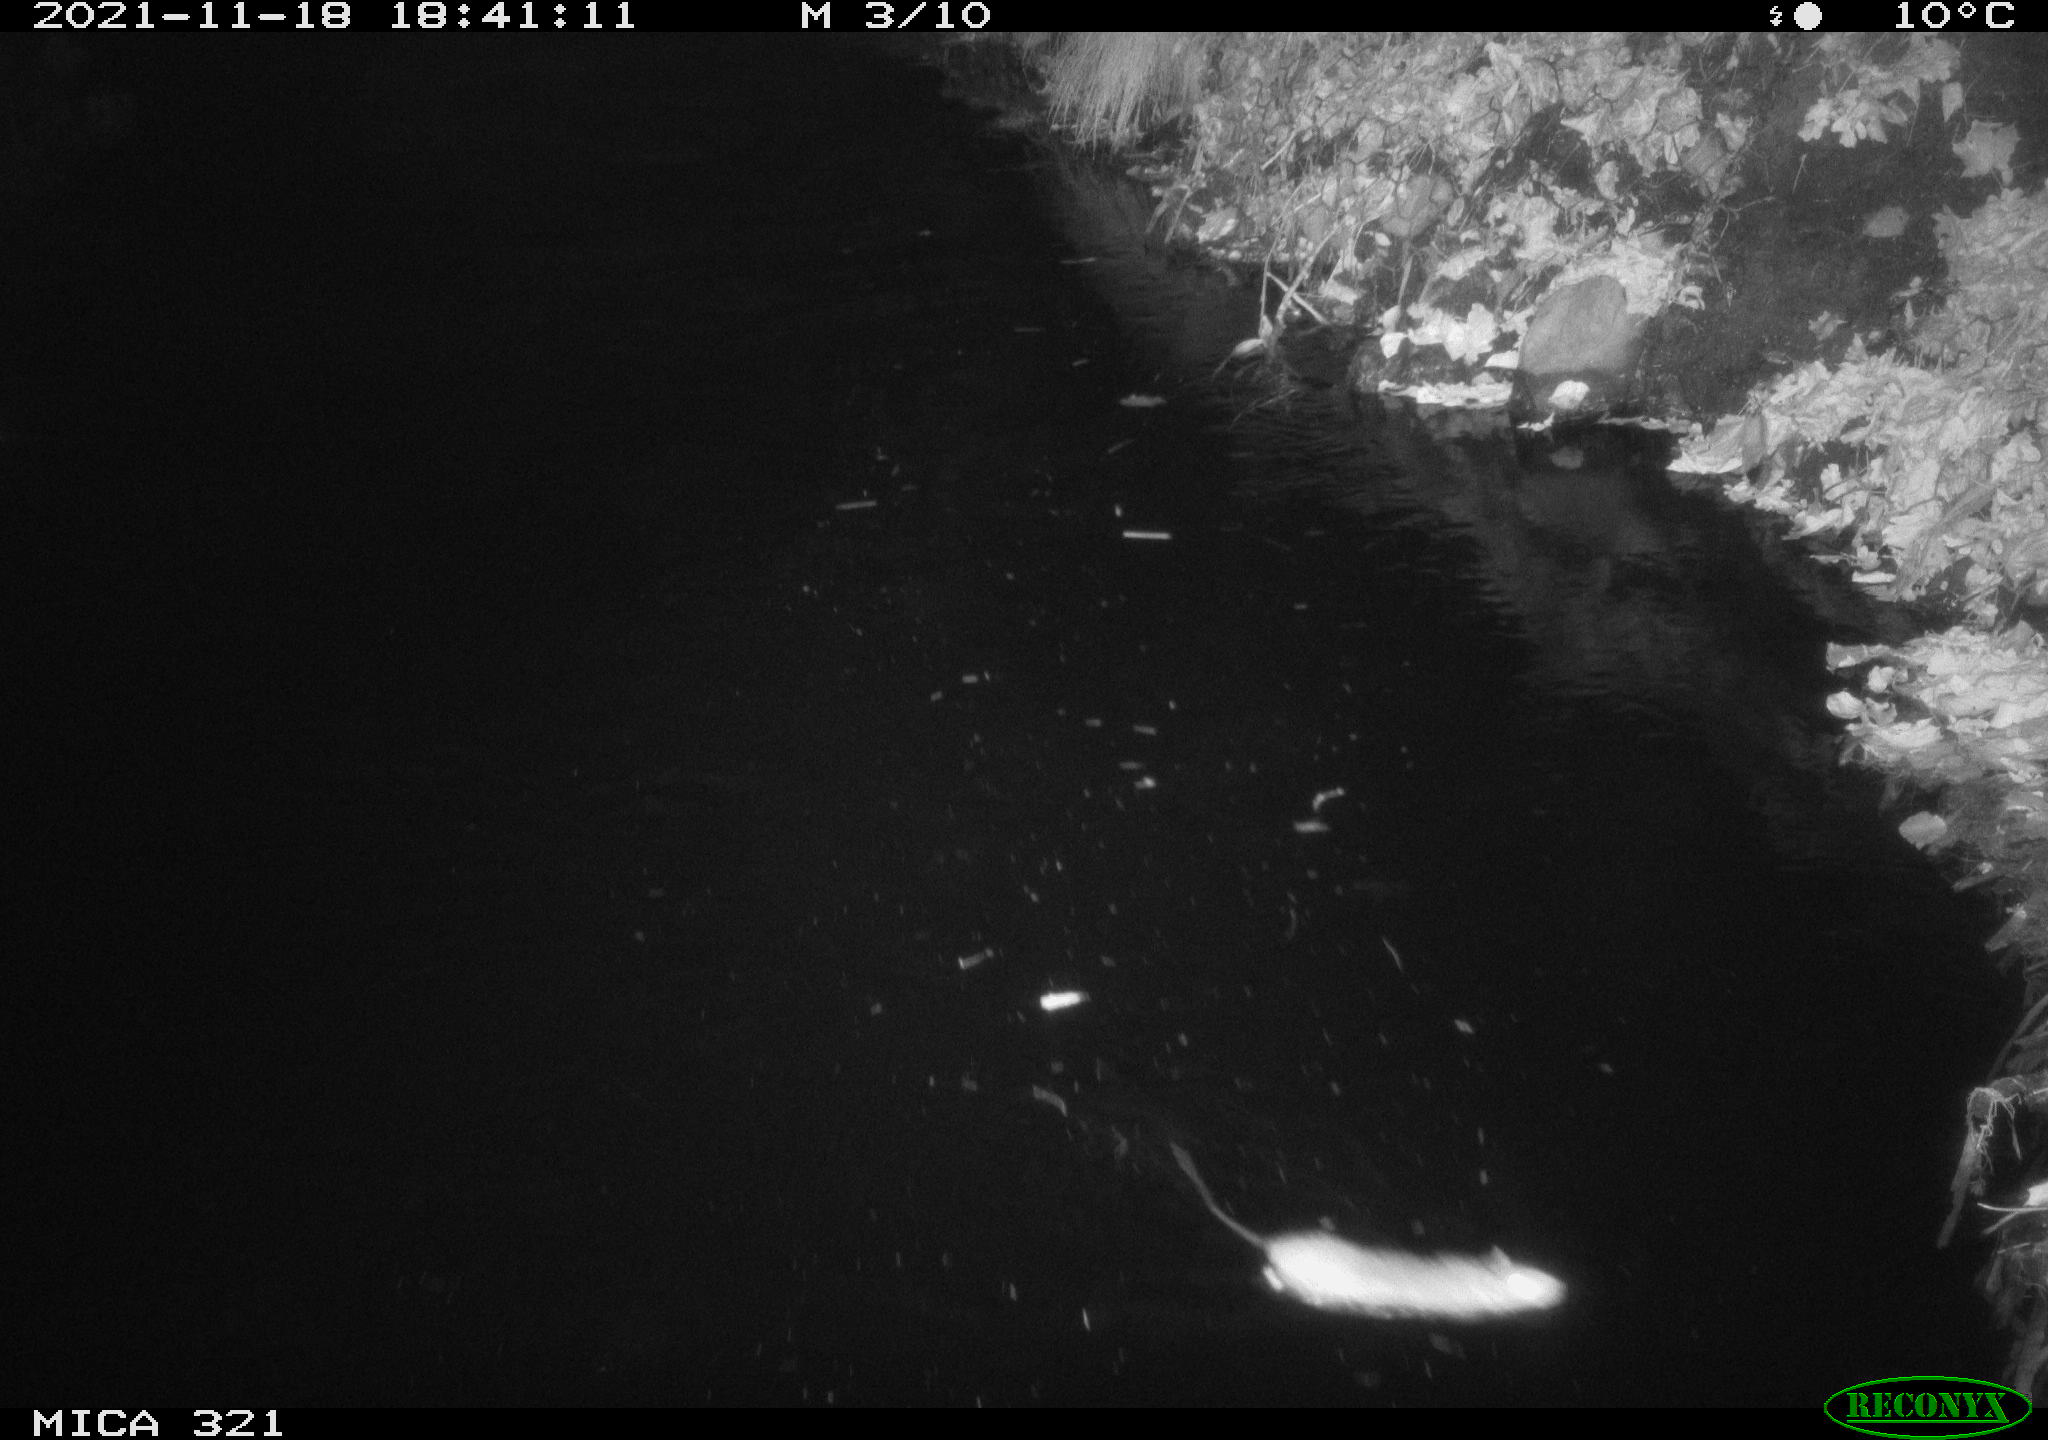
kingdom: Animalia
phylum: Chordata
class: Mammalia
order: Rodentia
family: Muridae
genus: Rattus
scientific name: Rattus norvegicus
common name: Brown rat
